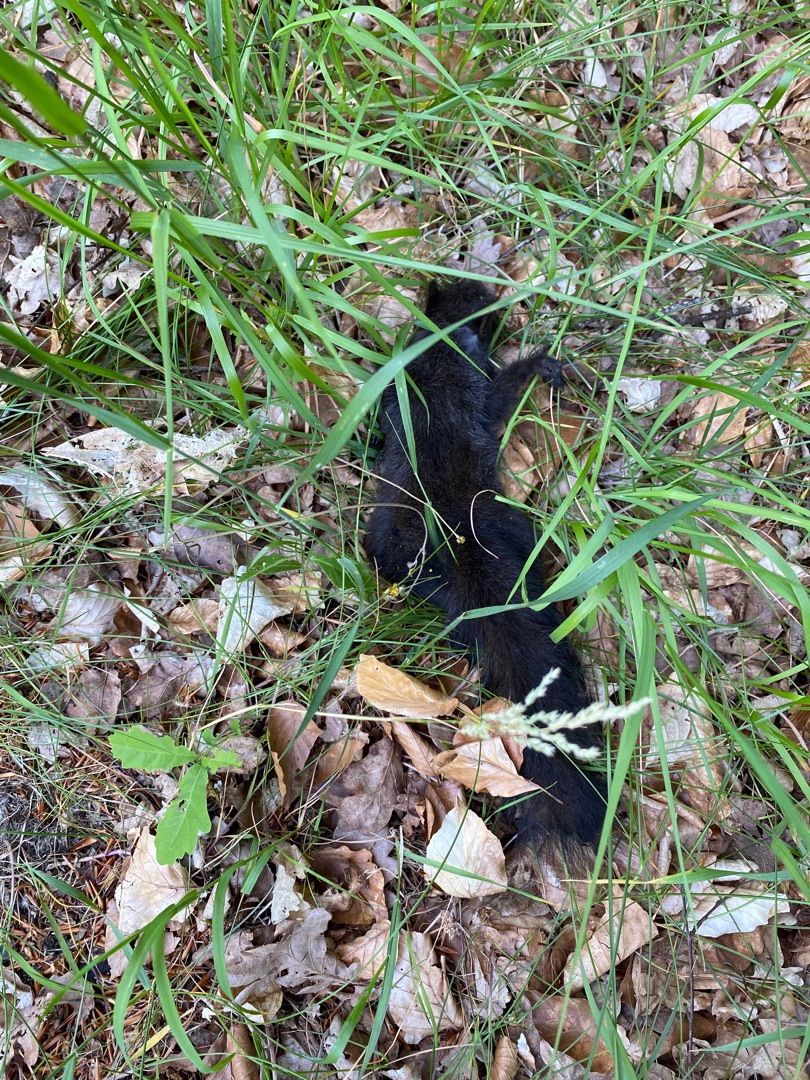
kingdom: Animalia
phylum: Chordata
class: Mammalia
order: Rodentia
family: Sciuridae
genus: Sciurus
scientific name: Sciurus vulgaris
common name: Egern
